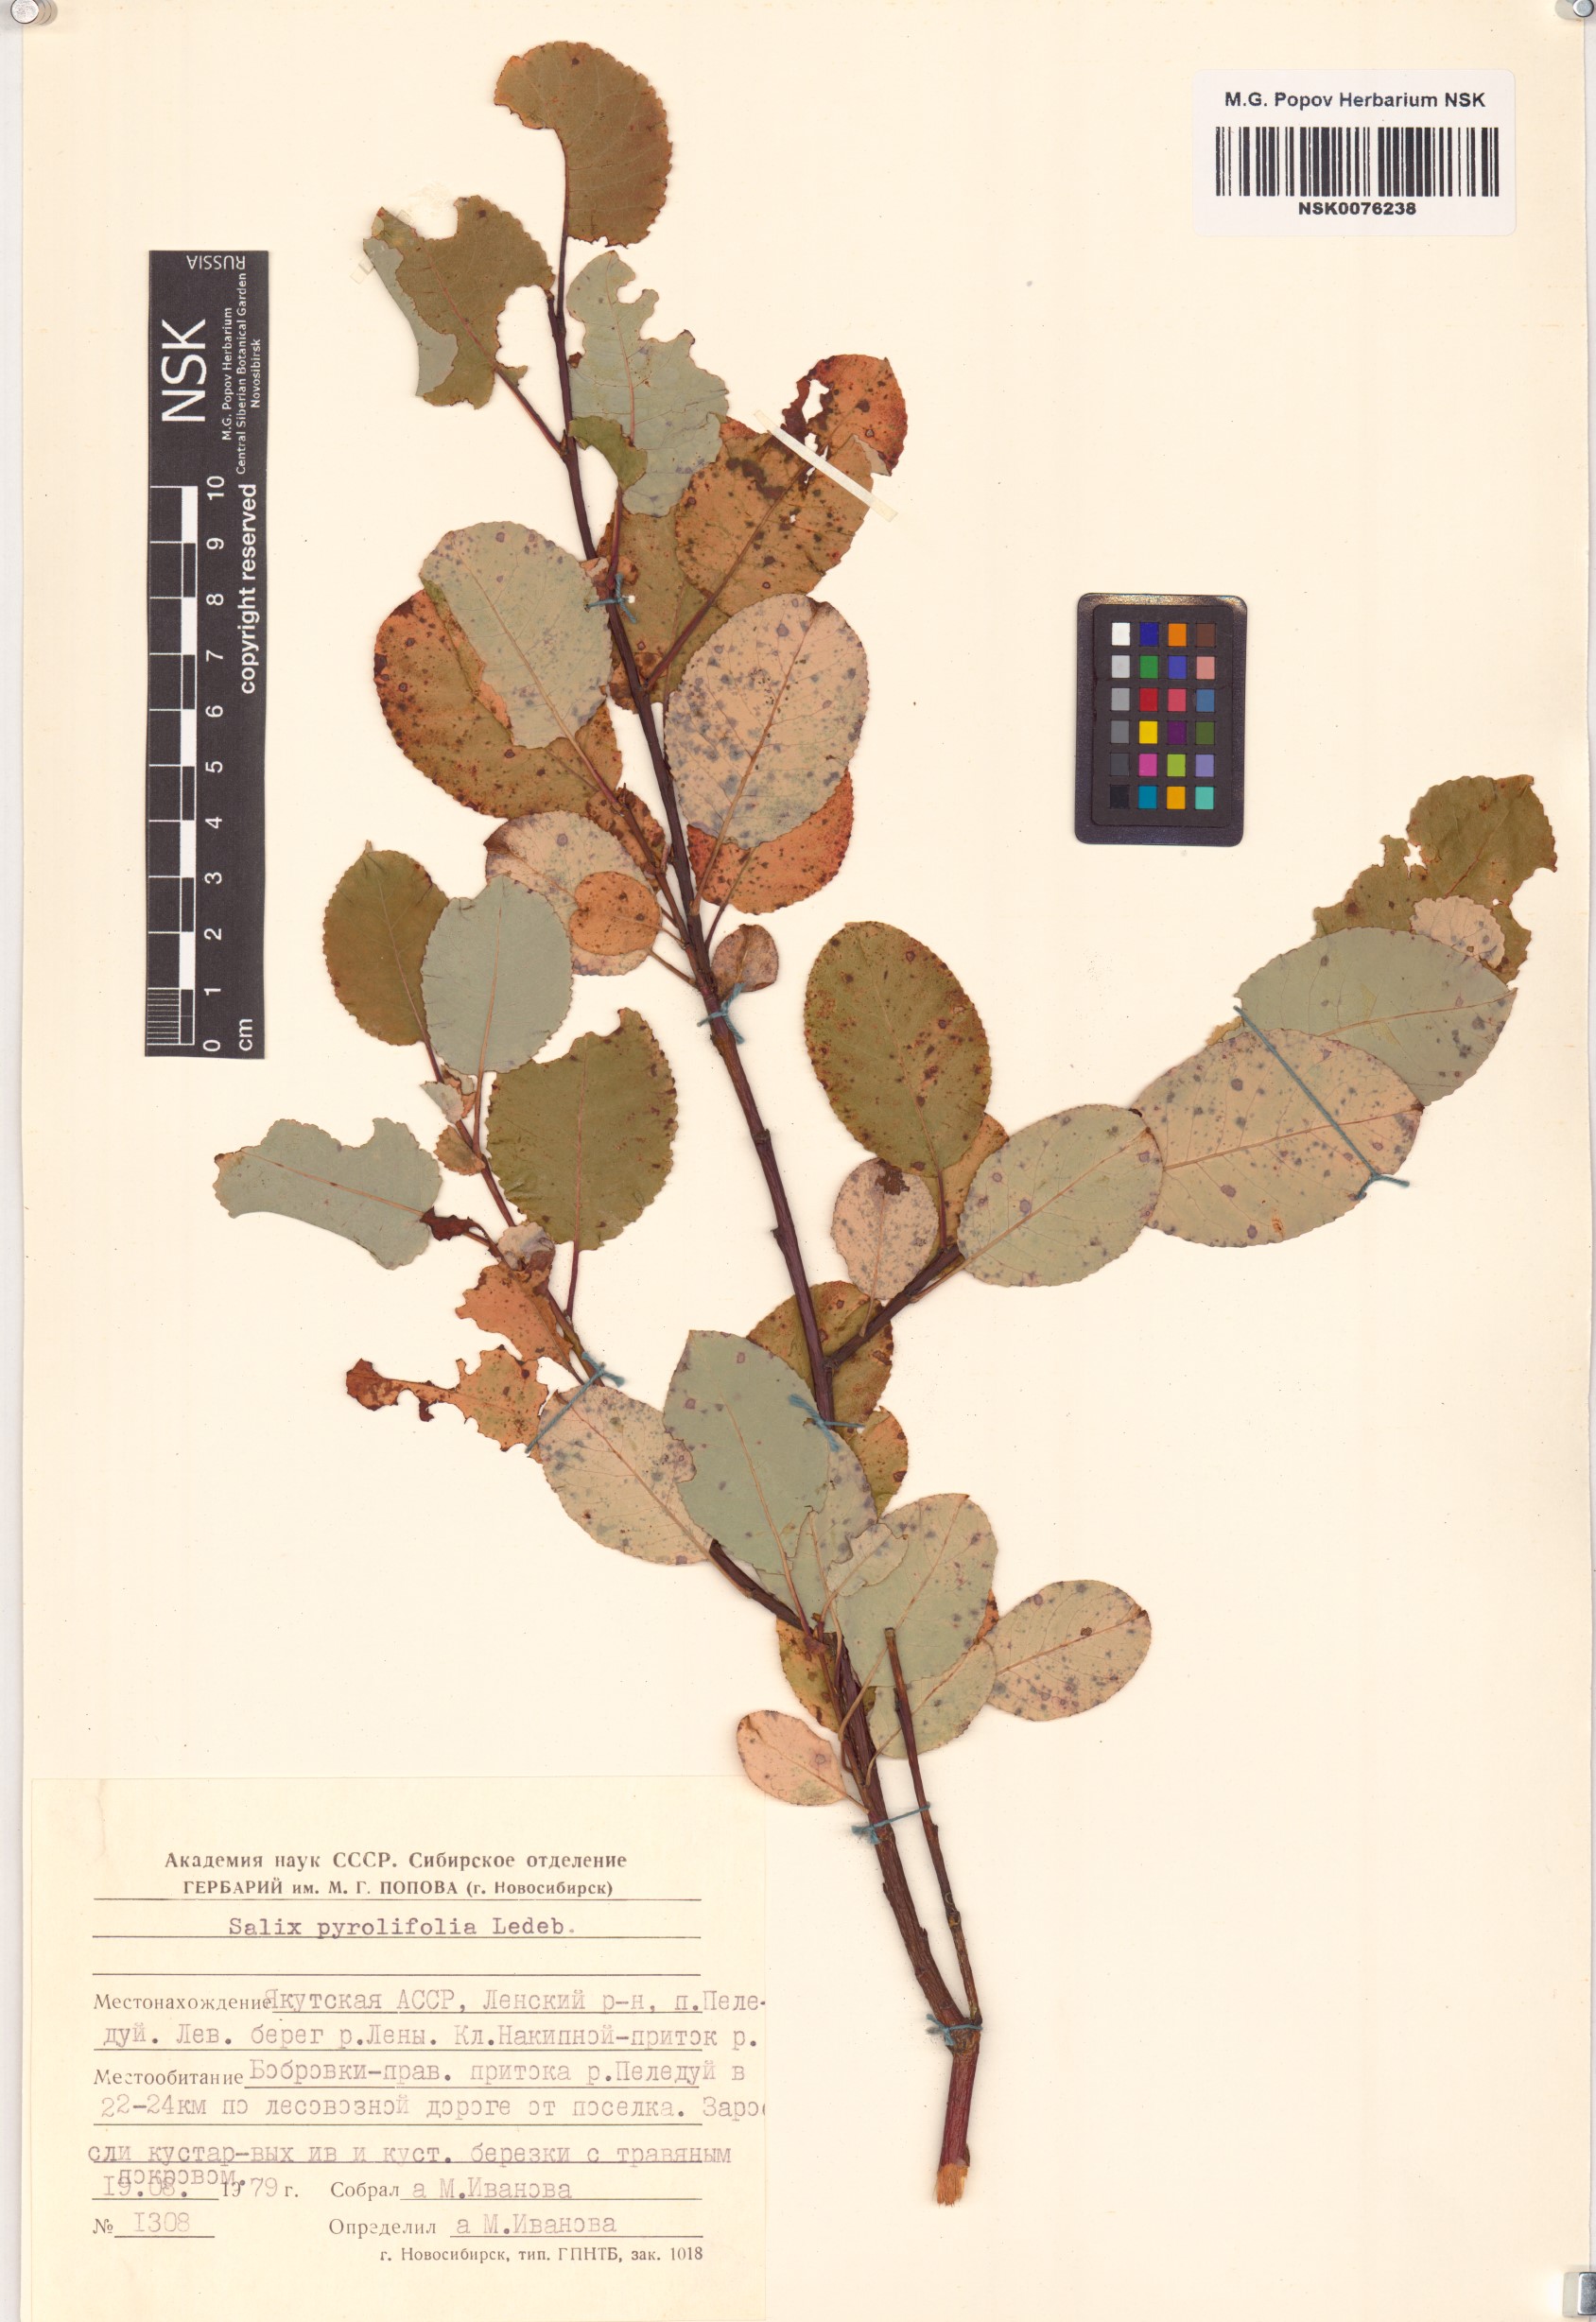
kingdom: Plantae
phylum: Tracheophyta
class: Magnoliopsida
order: Malpighiales
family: Salicaceae
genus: Salix
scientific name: Salix pyrolifolia
